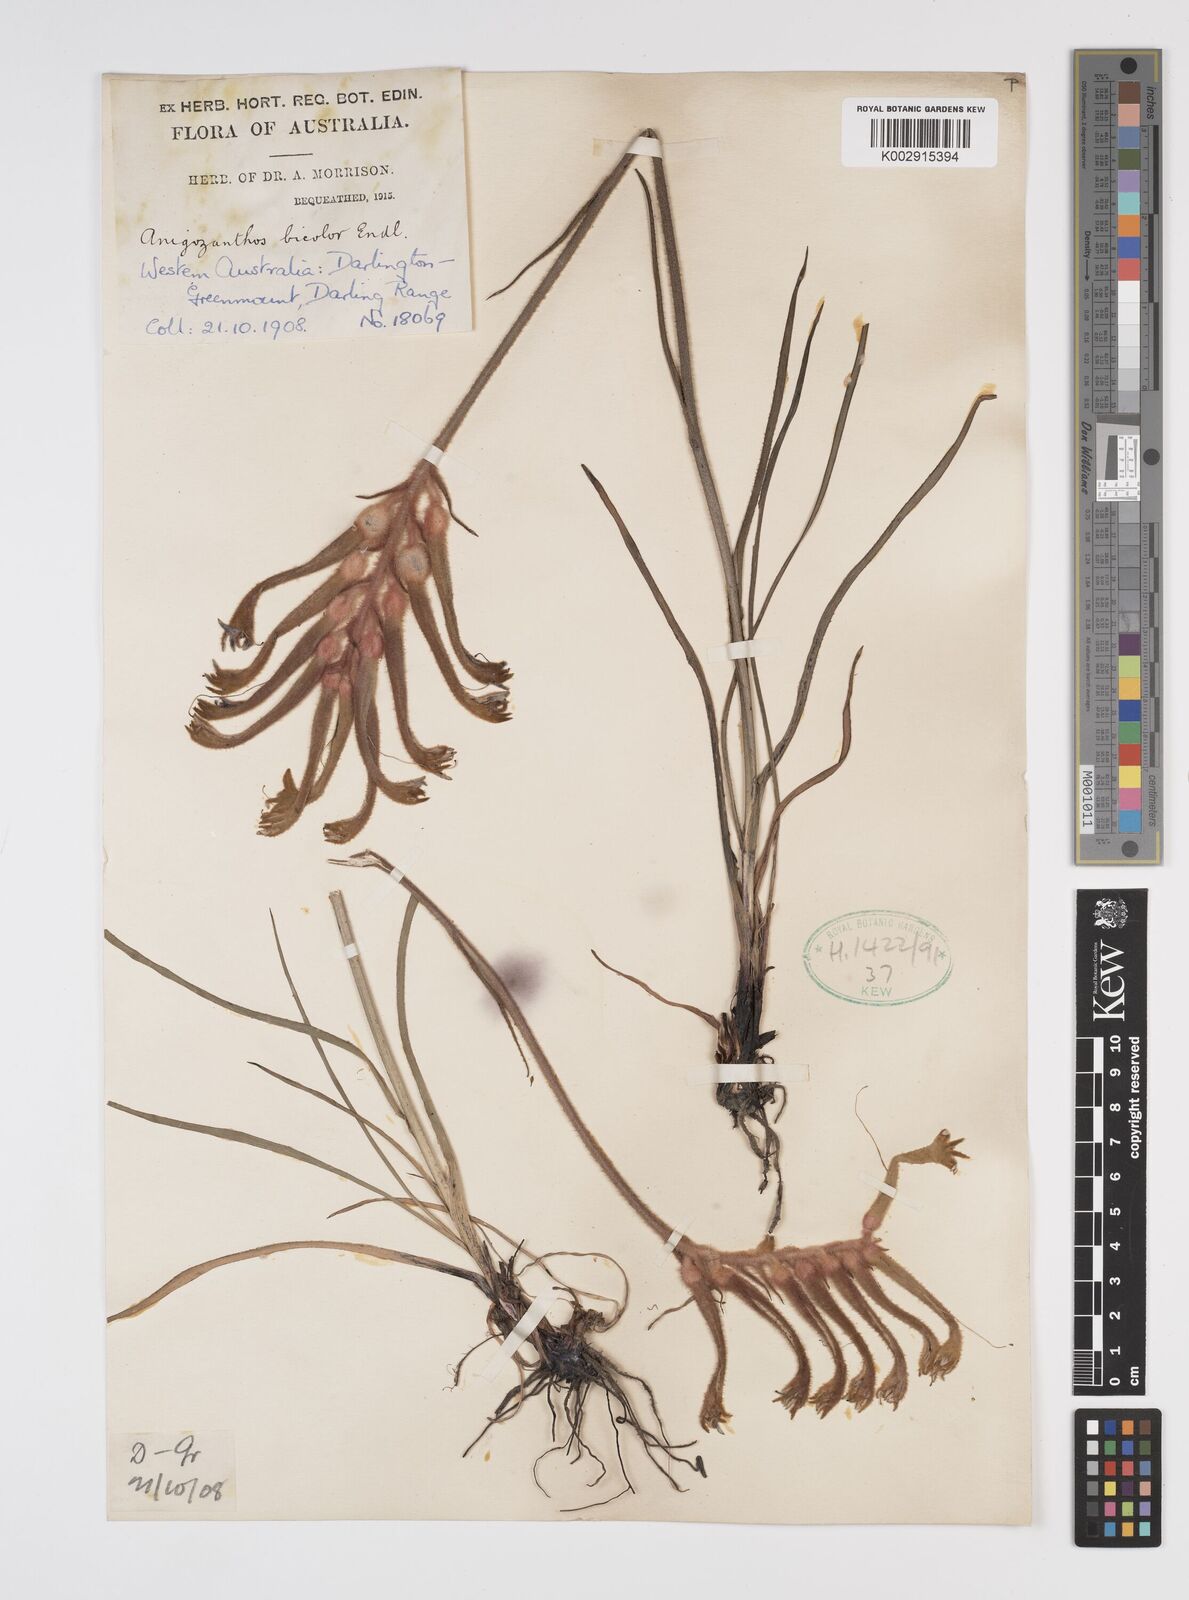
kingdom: Plantae
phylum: Tracheophyta
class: Liliopsida
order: Commelinales
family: Haemodoraceae
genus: Anigozanthos
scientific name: Anigozanthos bicolor
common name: Little kangaroo-paw
